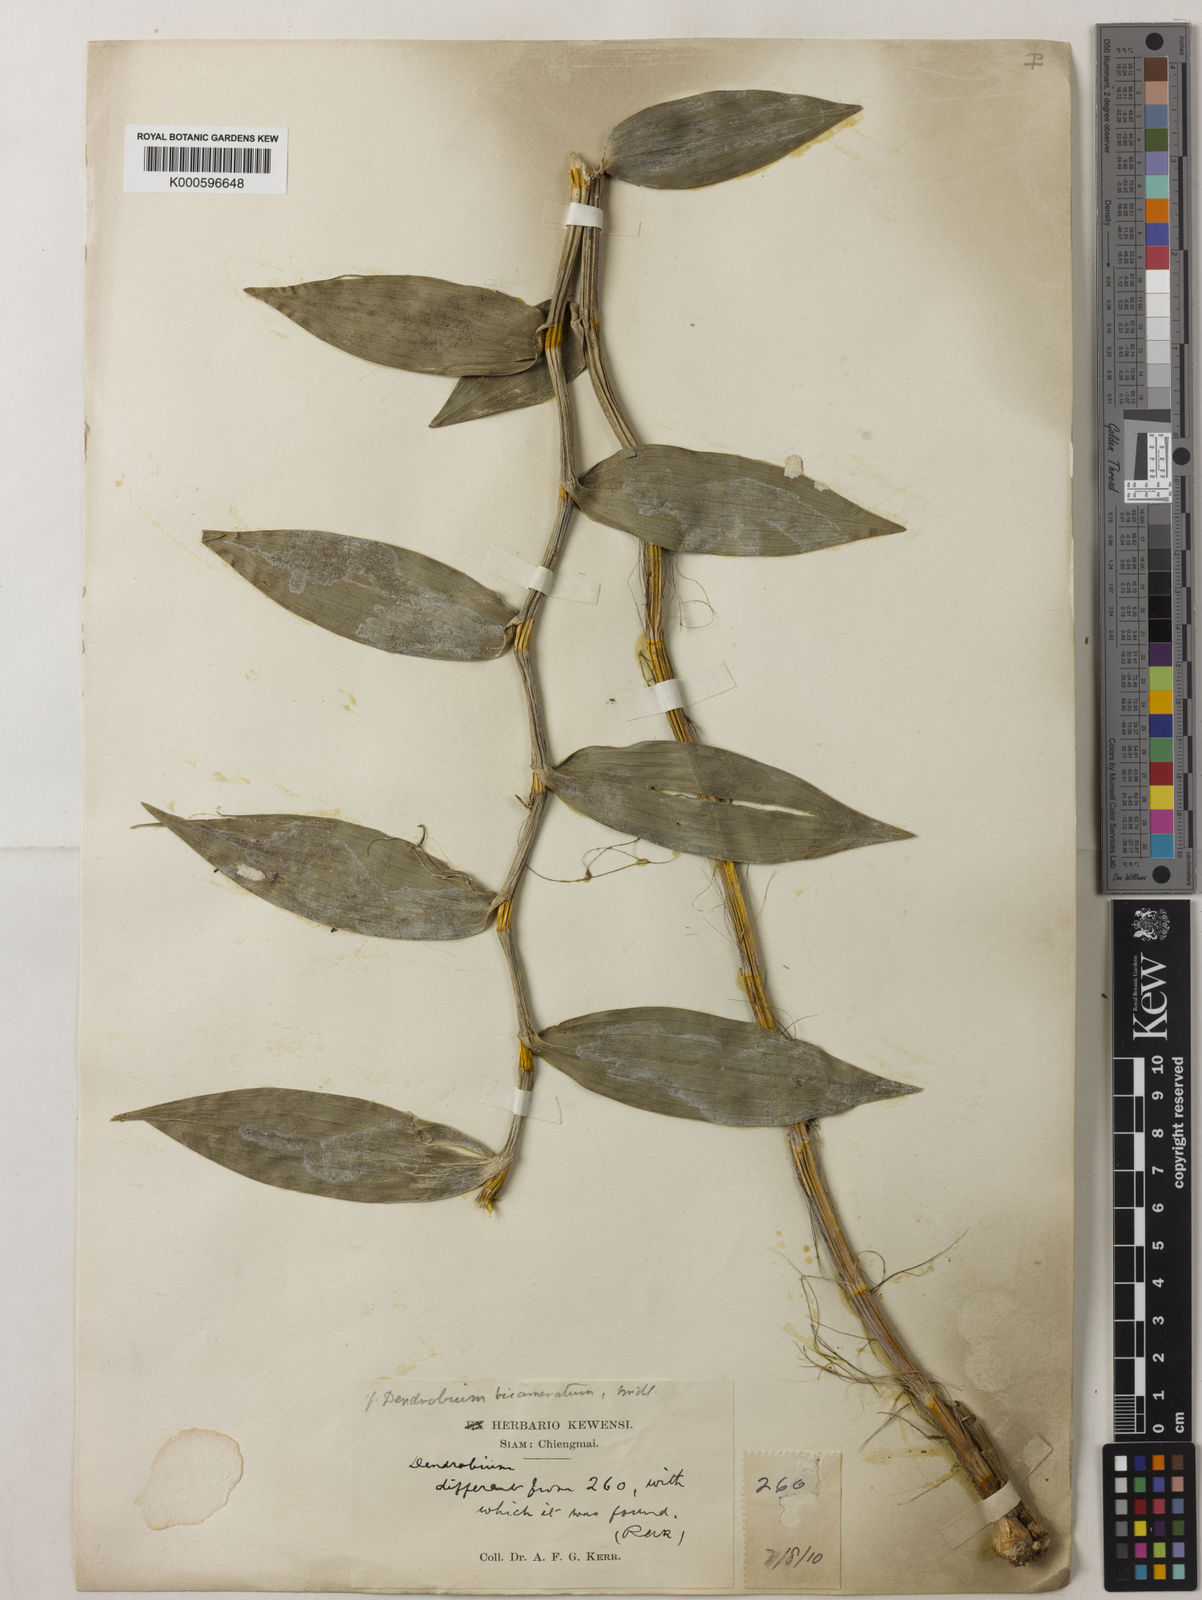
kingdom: Plantae
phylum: Tracheophyta
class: Liliopsida
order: Asparagales
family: Orchidaceae
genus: Dendrobium
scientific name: Dendrobium bicameratum
